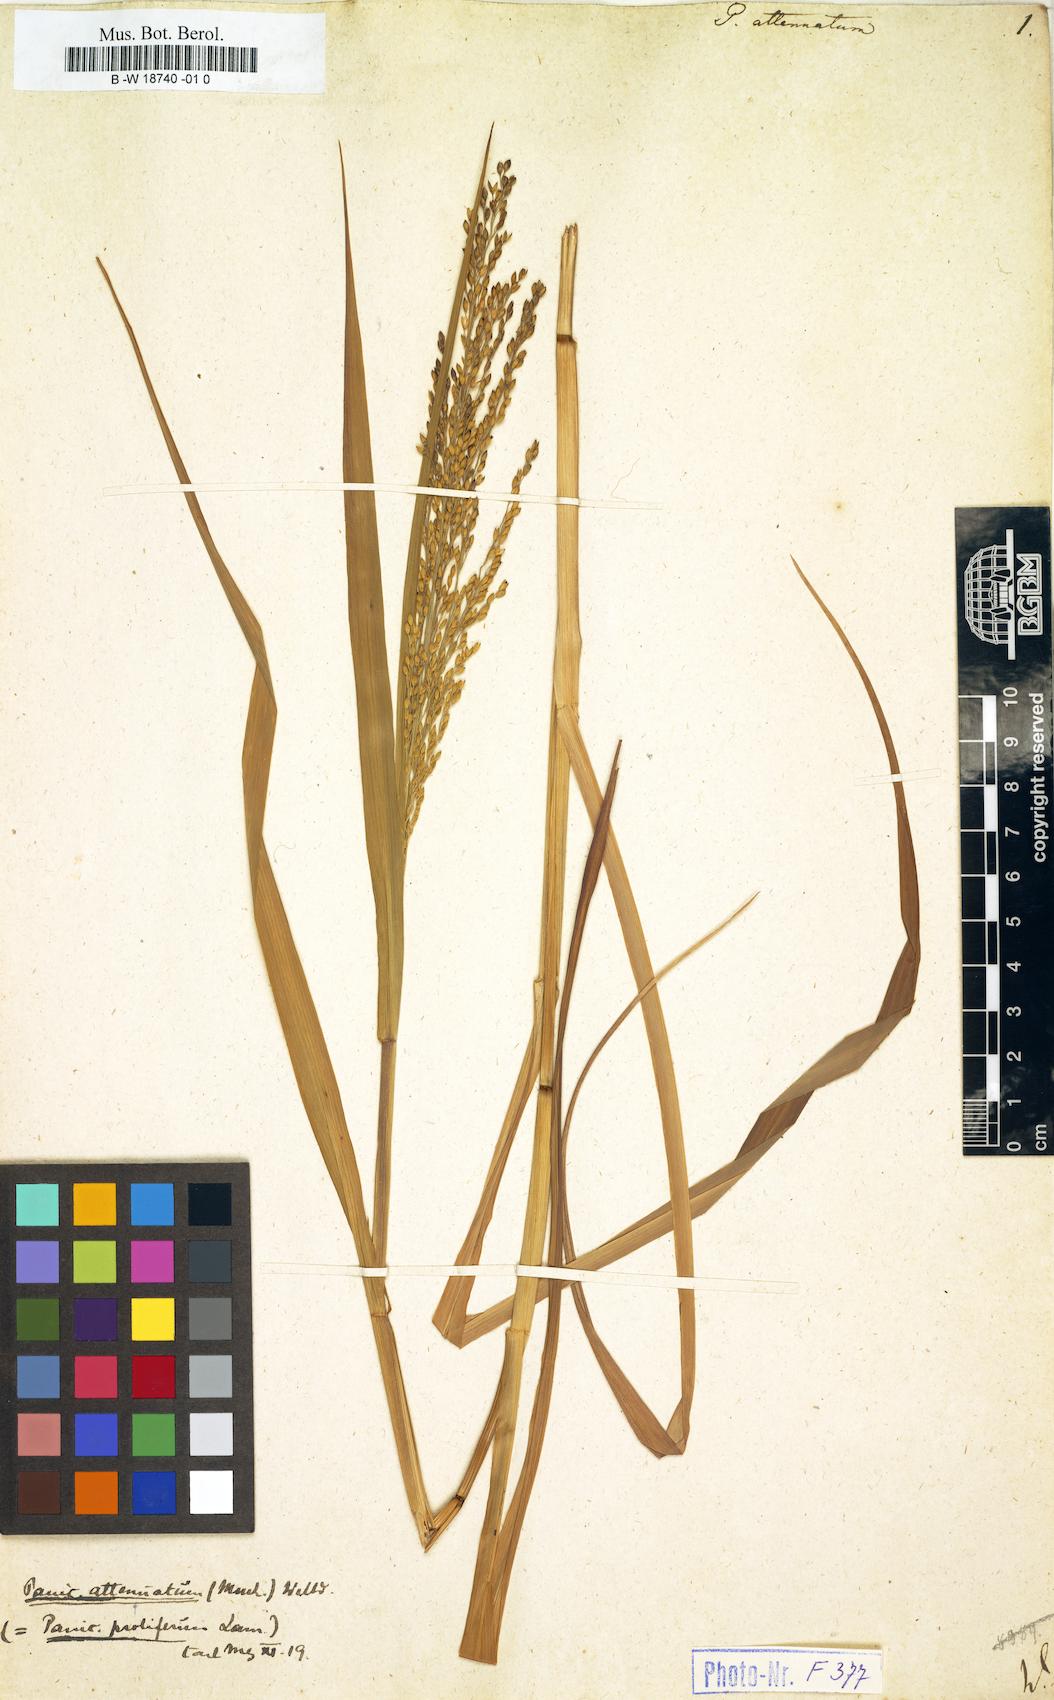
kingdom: Plantae
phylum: Tracheophyta
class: Liliopsida
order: Poales
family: Poaceae
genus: Panicum
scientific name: Panicum sumatrense
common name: Little millet
